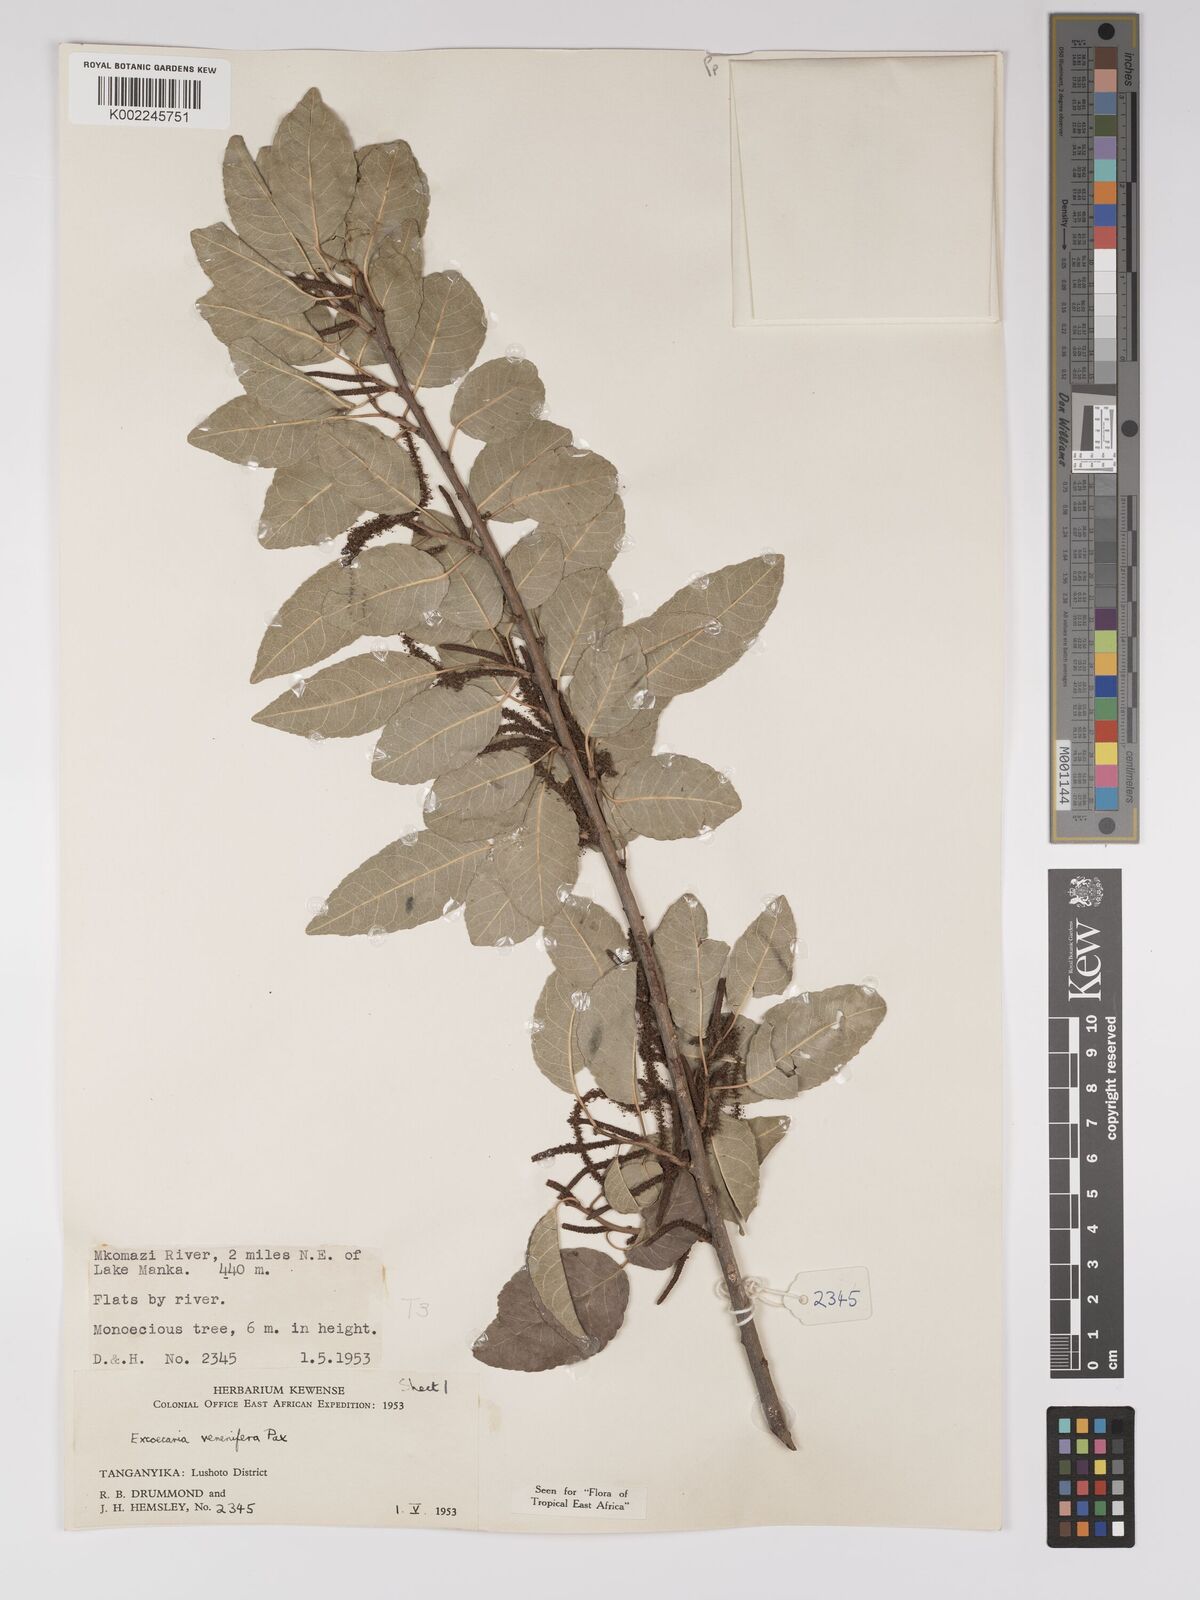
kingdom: Plantae
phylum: Tracheophyta
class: Magnoliopsida
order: Malpighiales
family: Euphorbiaceae
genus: Spirostachys
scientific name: Spirostachys venenifera
